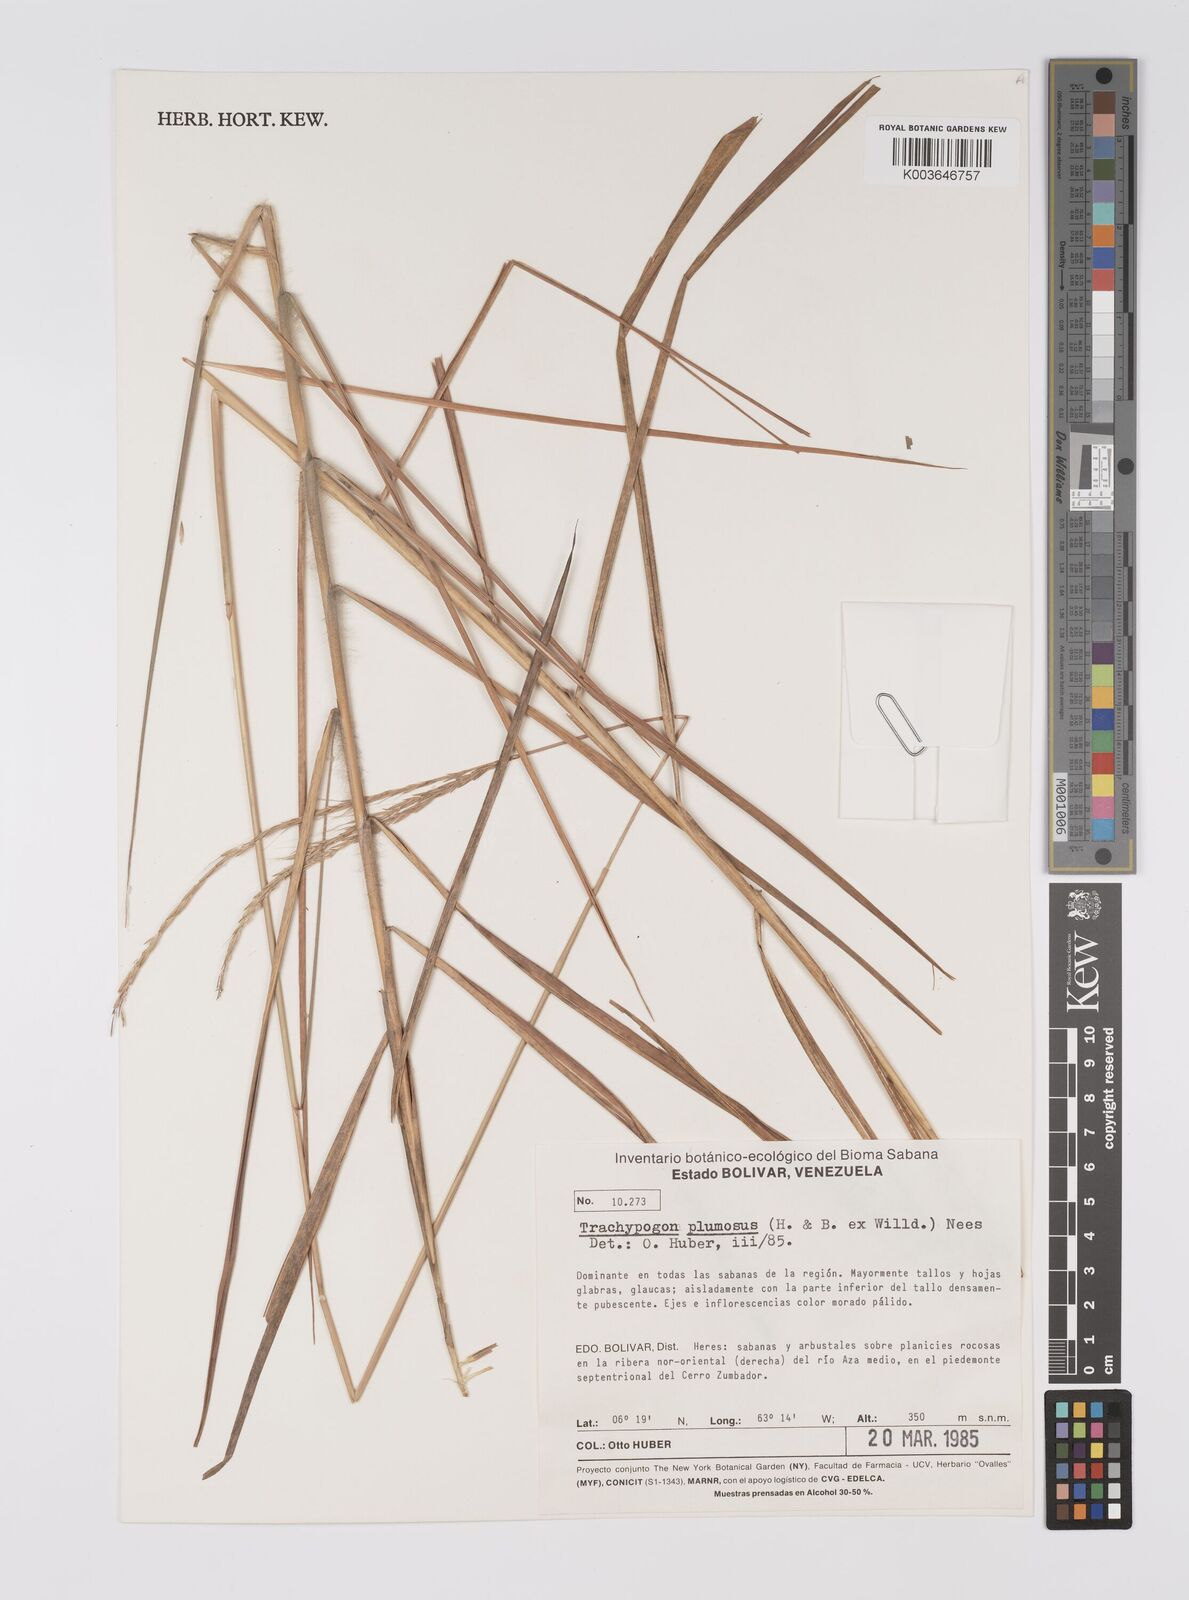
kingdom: Plantae
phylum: Tracheophyta
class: Liliopsida
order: Poales
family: Poaceae
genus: Trachypogon
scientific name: Trachypogon spicatus
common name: Crinkle-awn
